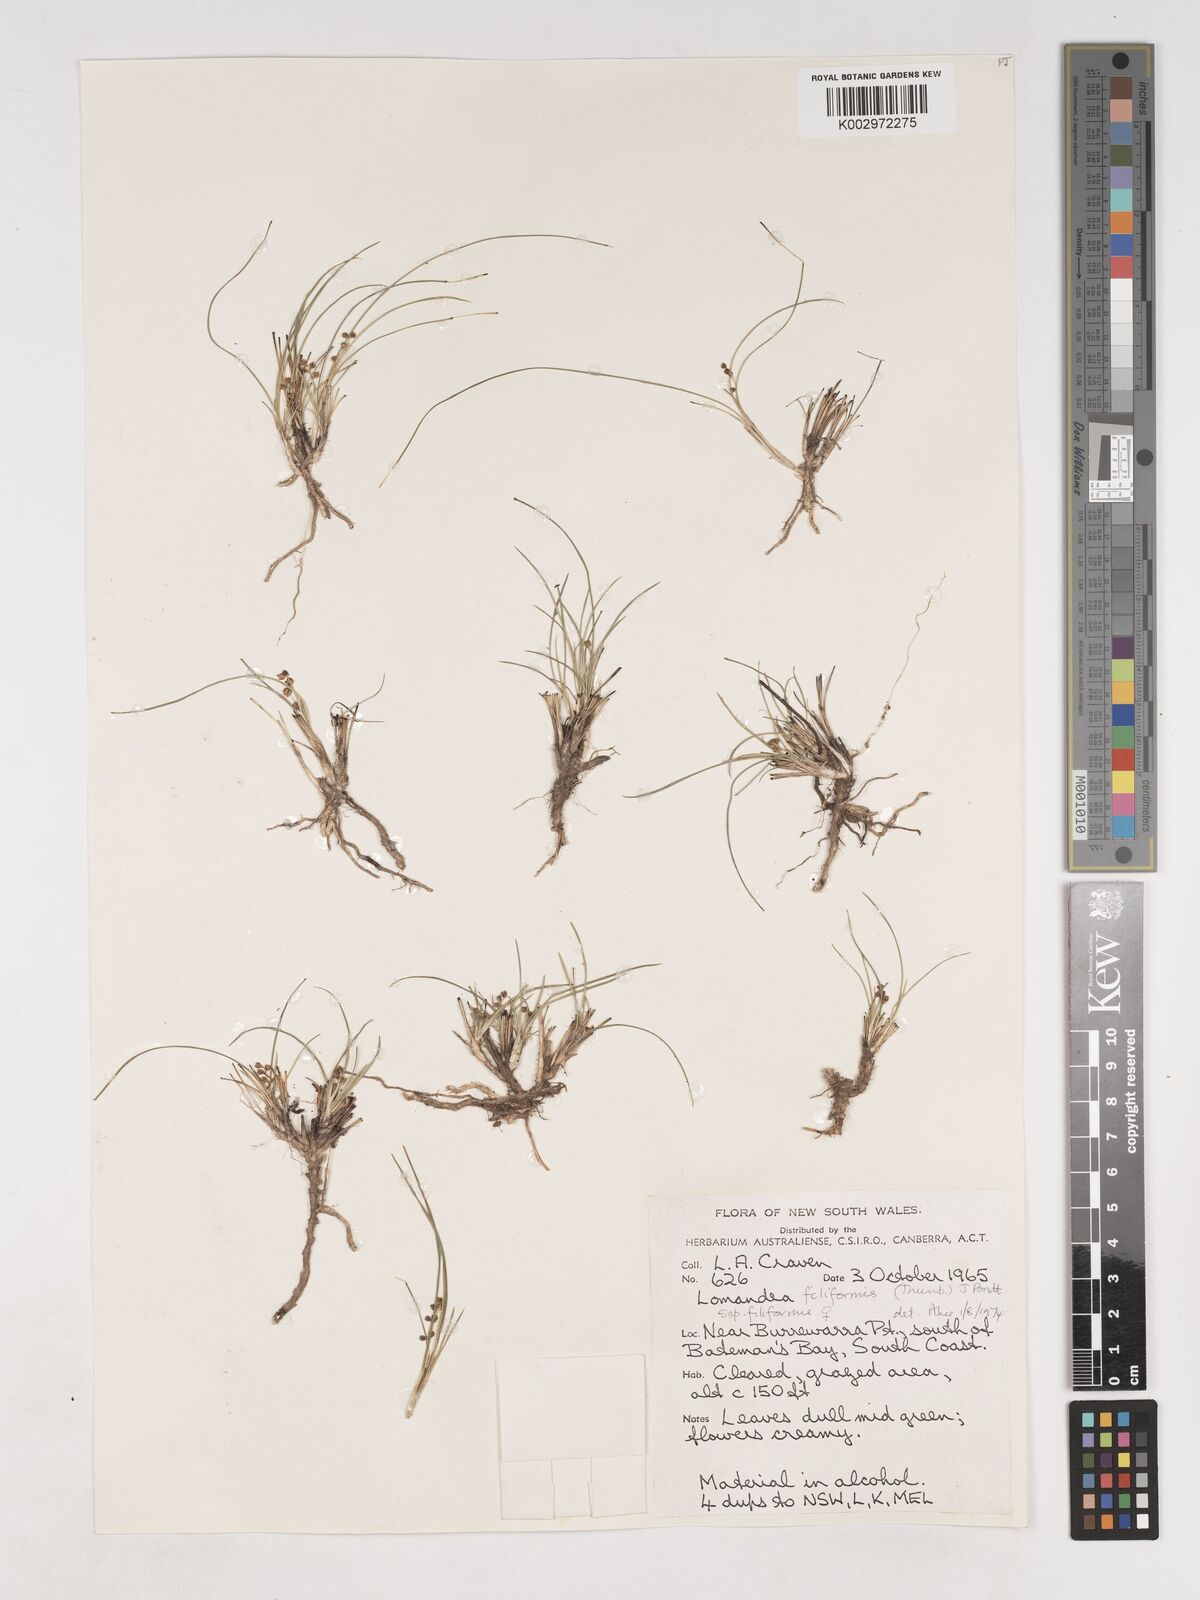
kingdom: Plantae
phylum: Tracheophyta
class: Liliopsida
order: Asparagales
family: Asparagaceae
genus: Lomandra
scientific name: Lomandra
